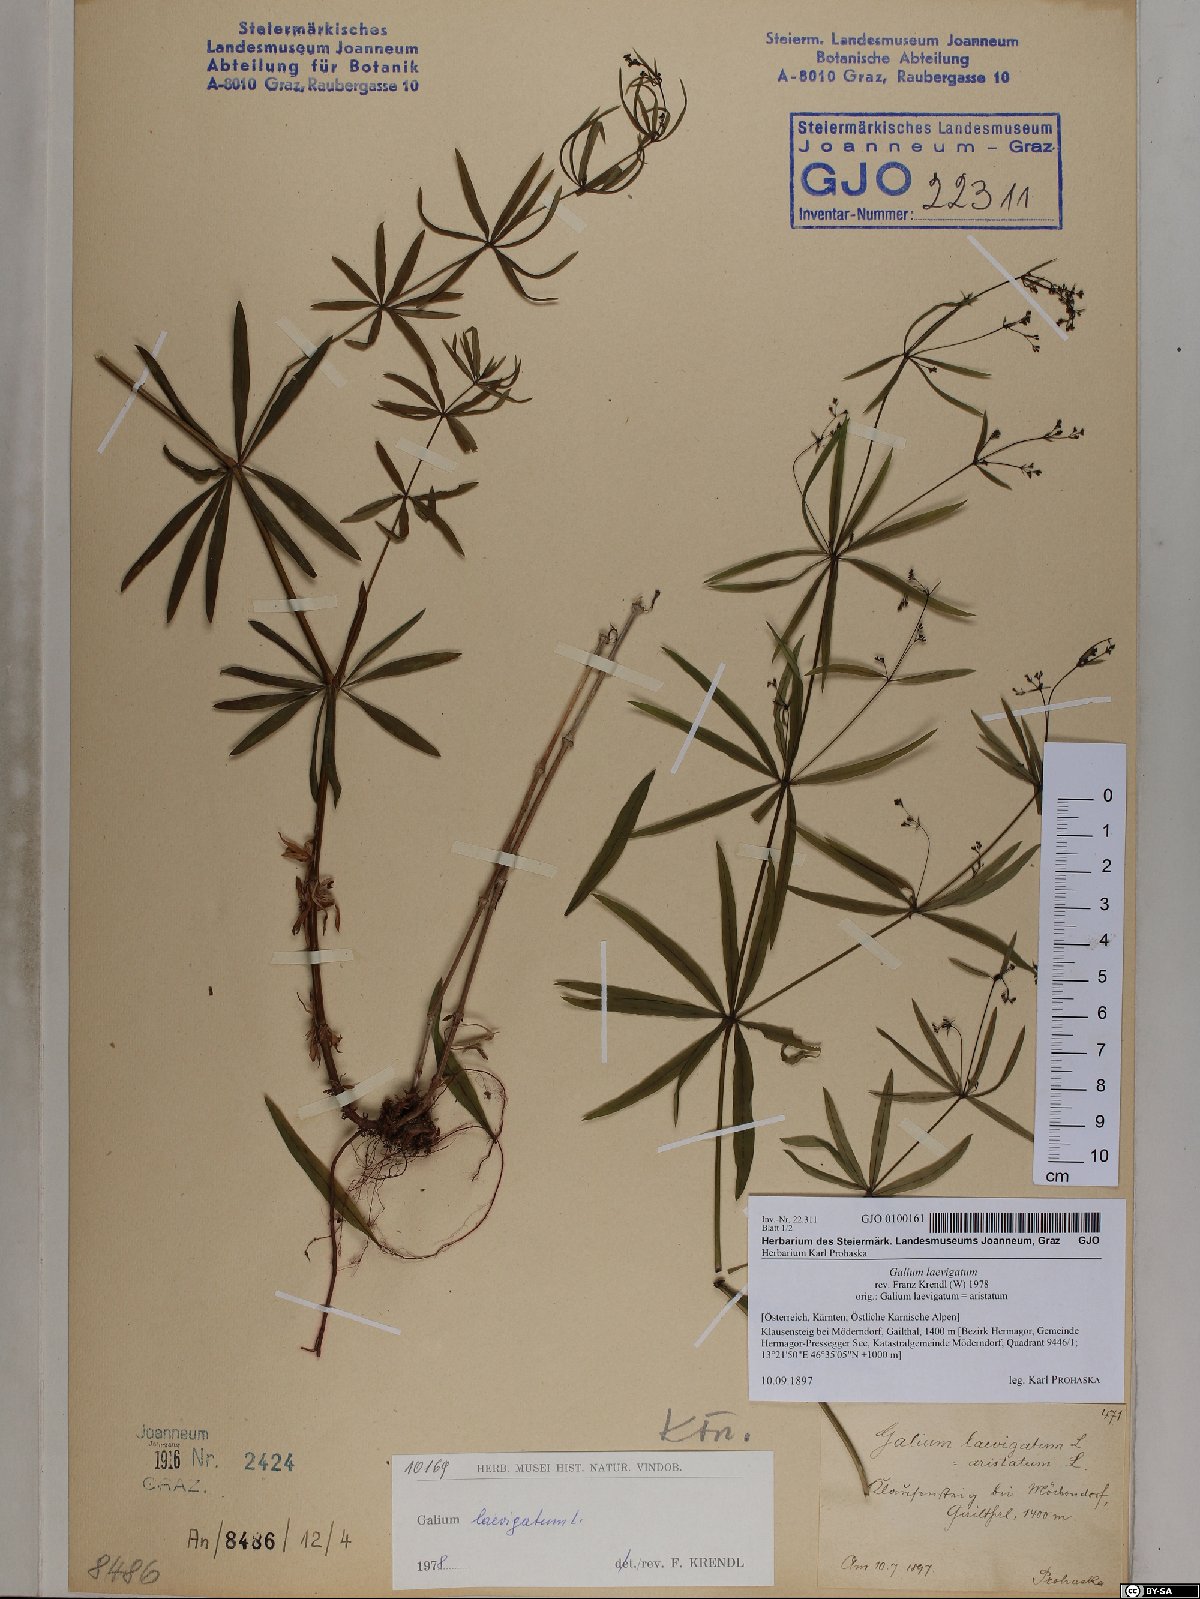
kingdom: Plantae
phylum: Tracheophyta
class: Magnoliopsida
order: Gentianales
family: Rubiaceae
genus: Galium
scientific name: Galium laevigatum
